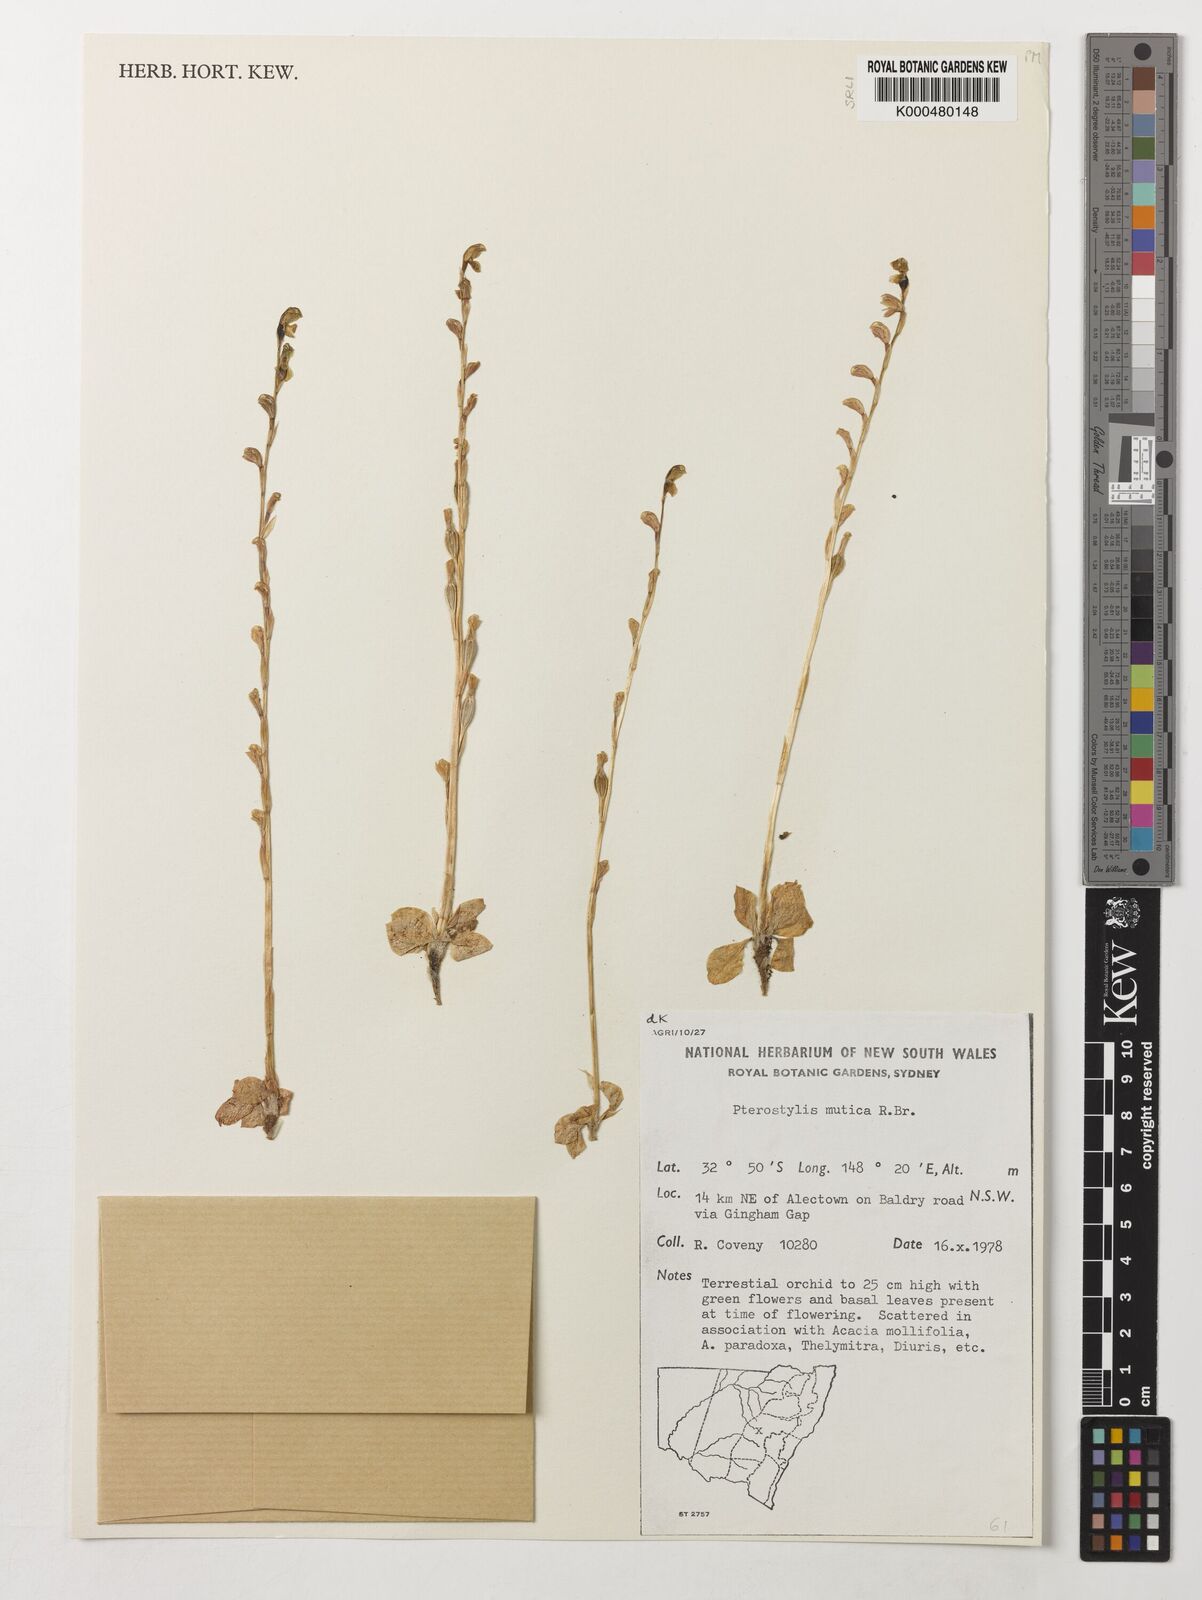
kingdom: Plantae
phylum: Tracheophyta
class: Liliopsida
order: Asparagales
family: Orchidaceae
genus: Pterostylis
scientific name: Pterostylis mutica
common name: Midget greenhood
